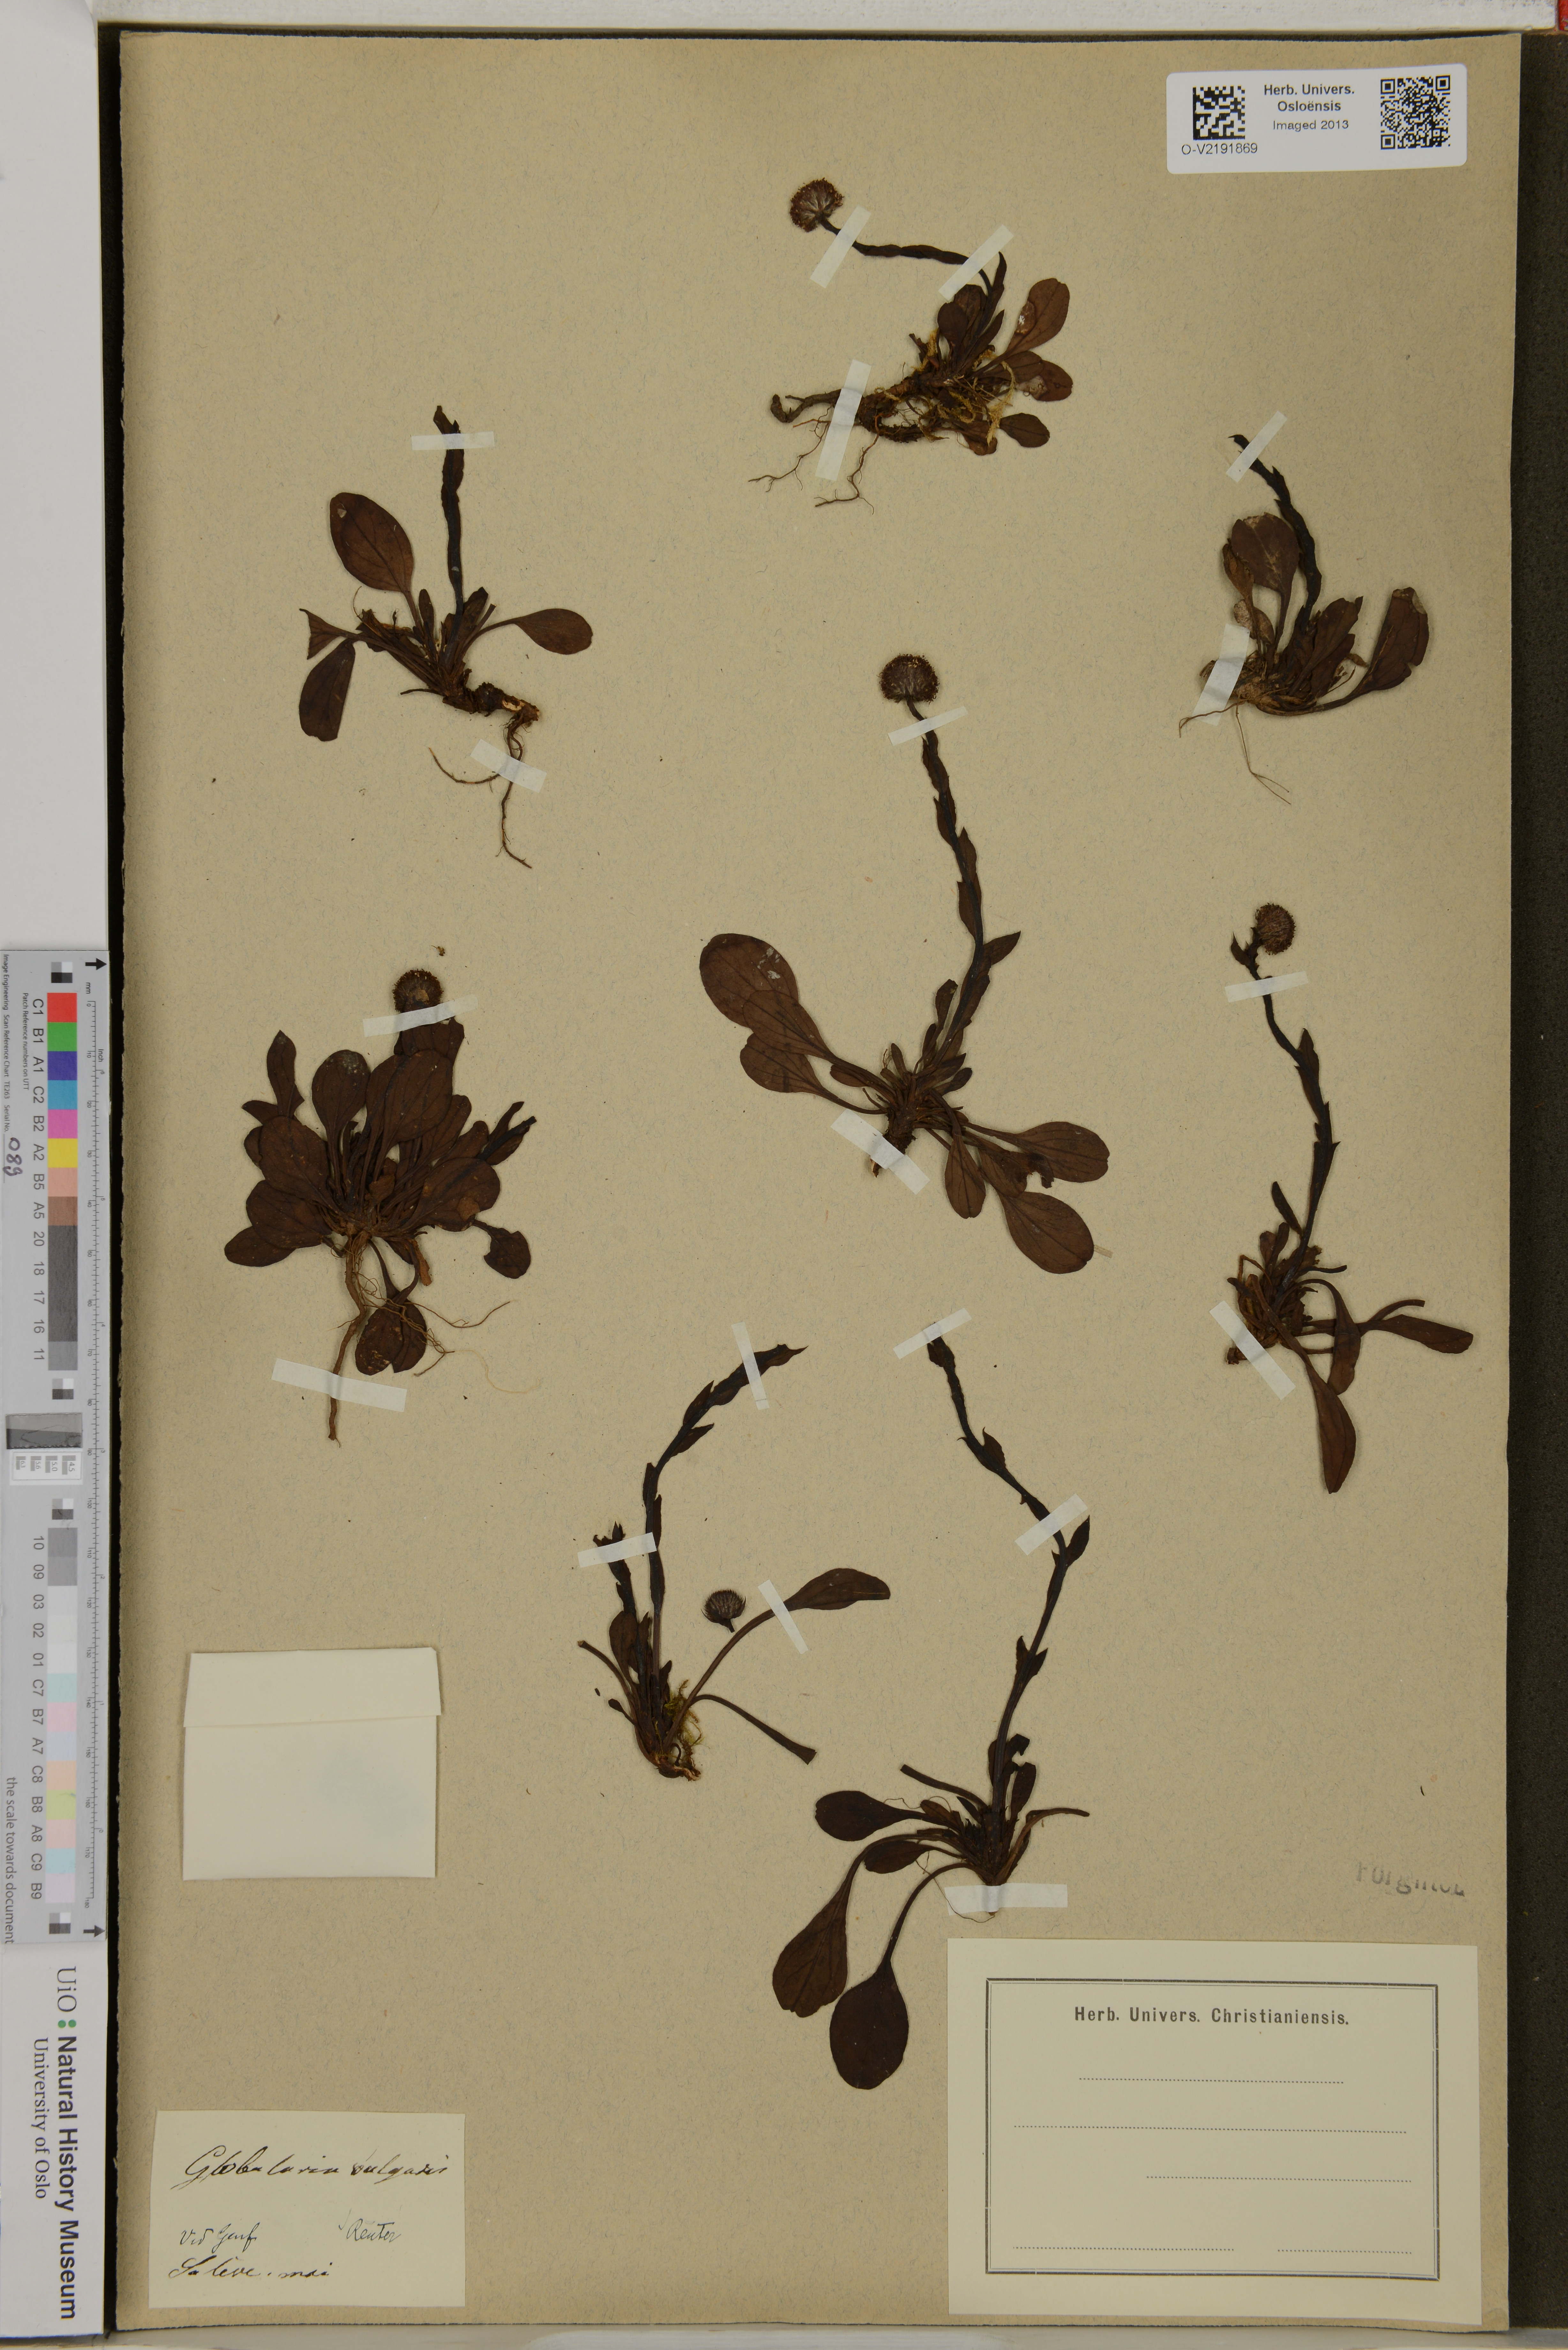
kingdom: Plantae
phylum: Tracheophyta
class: Magnoliopsida
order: Lamiales
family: Plantaginaceae
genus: Globularia
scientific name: Globularia vulgaris
